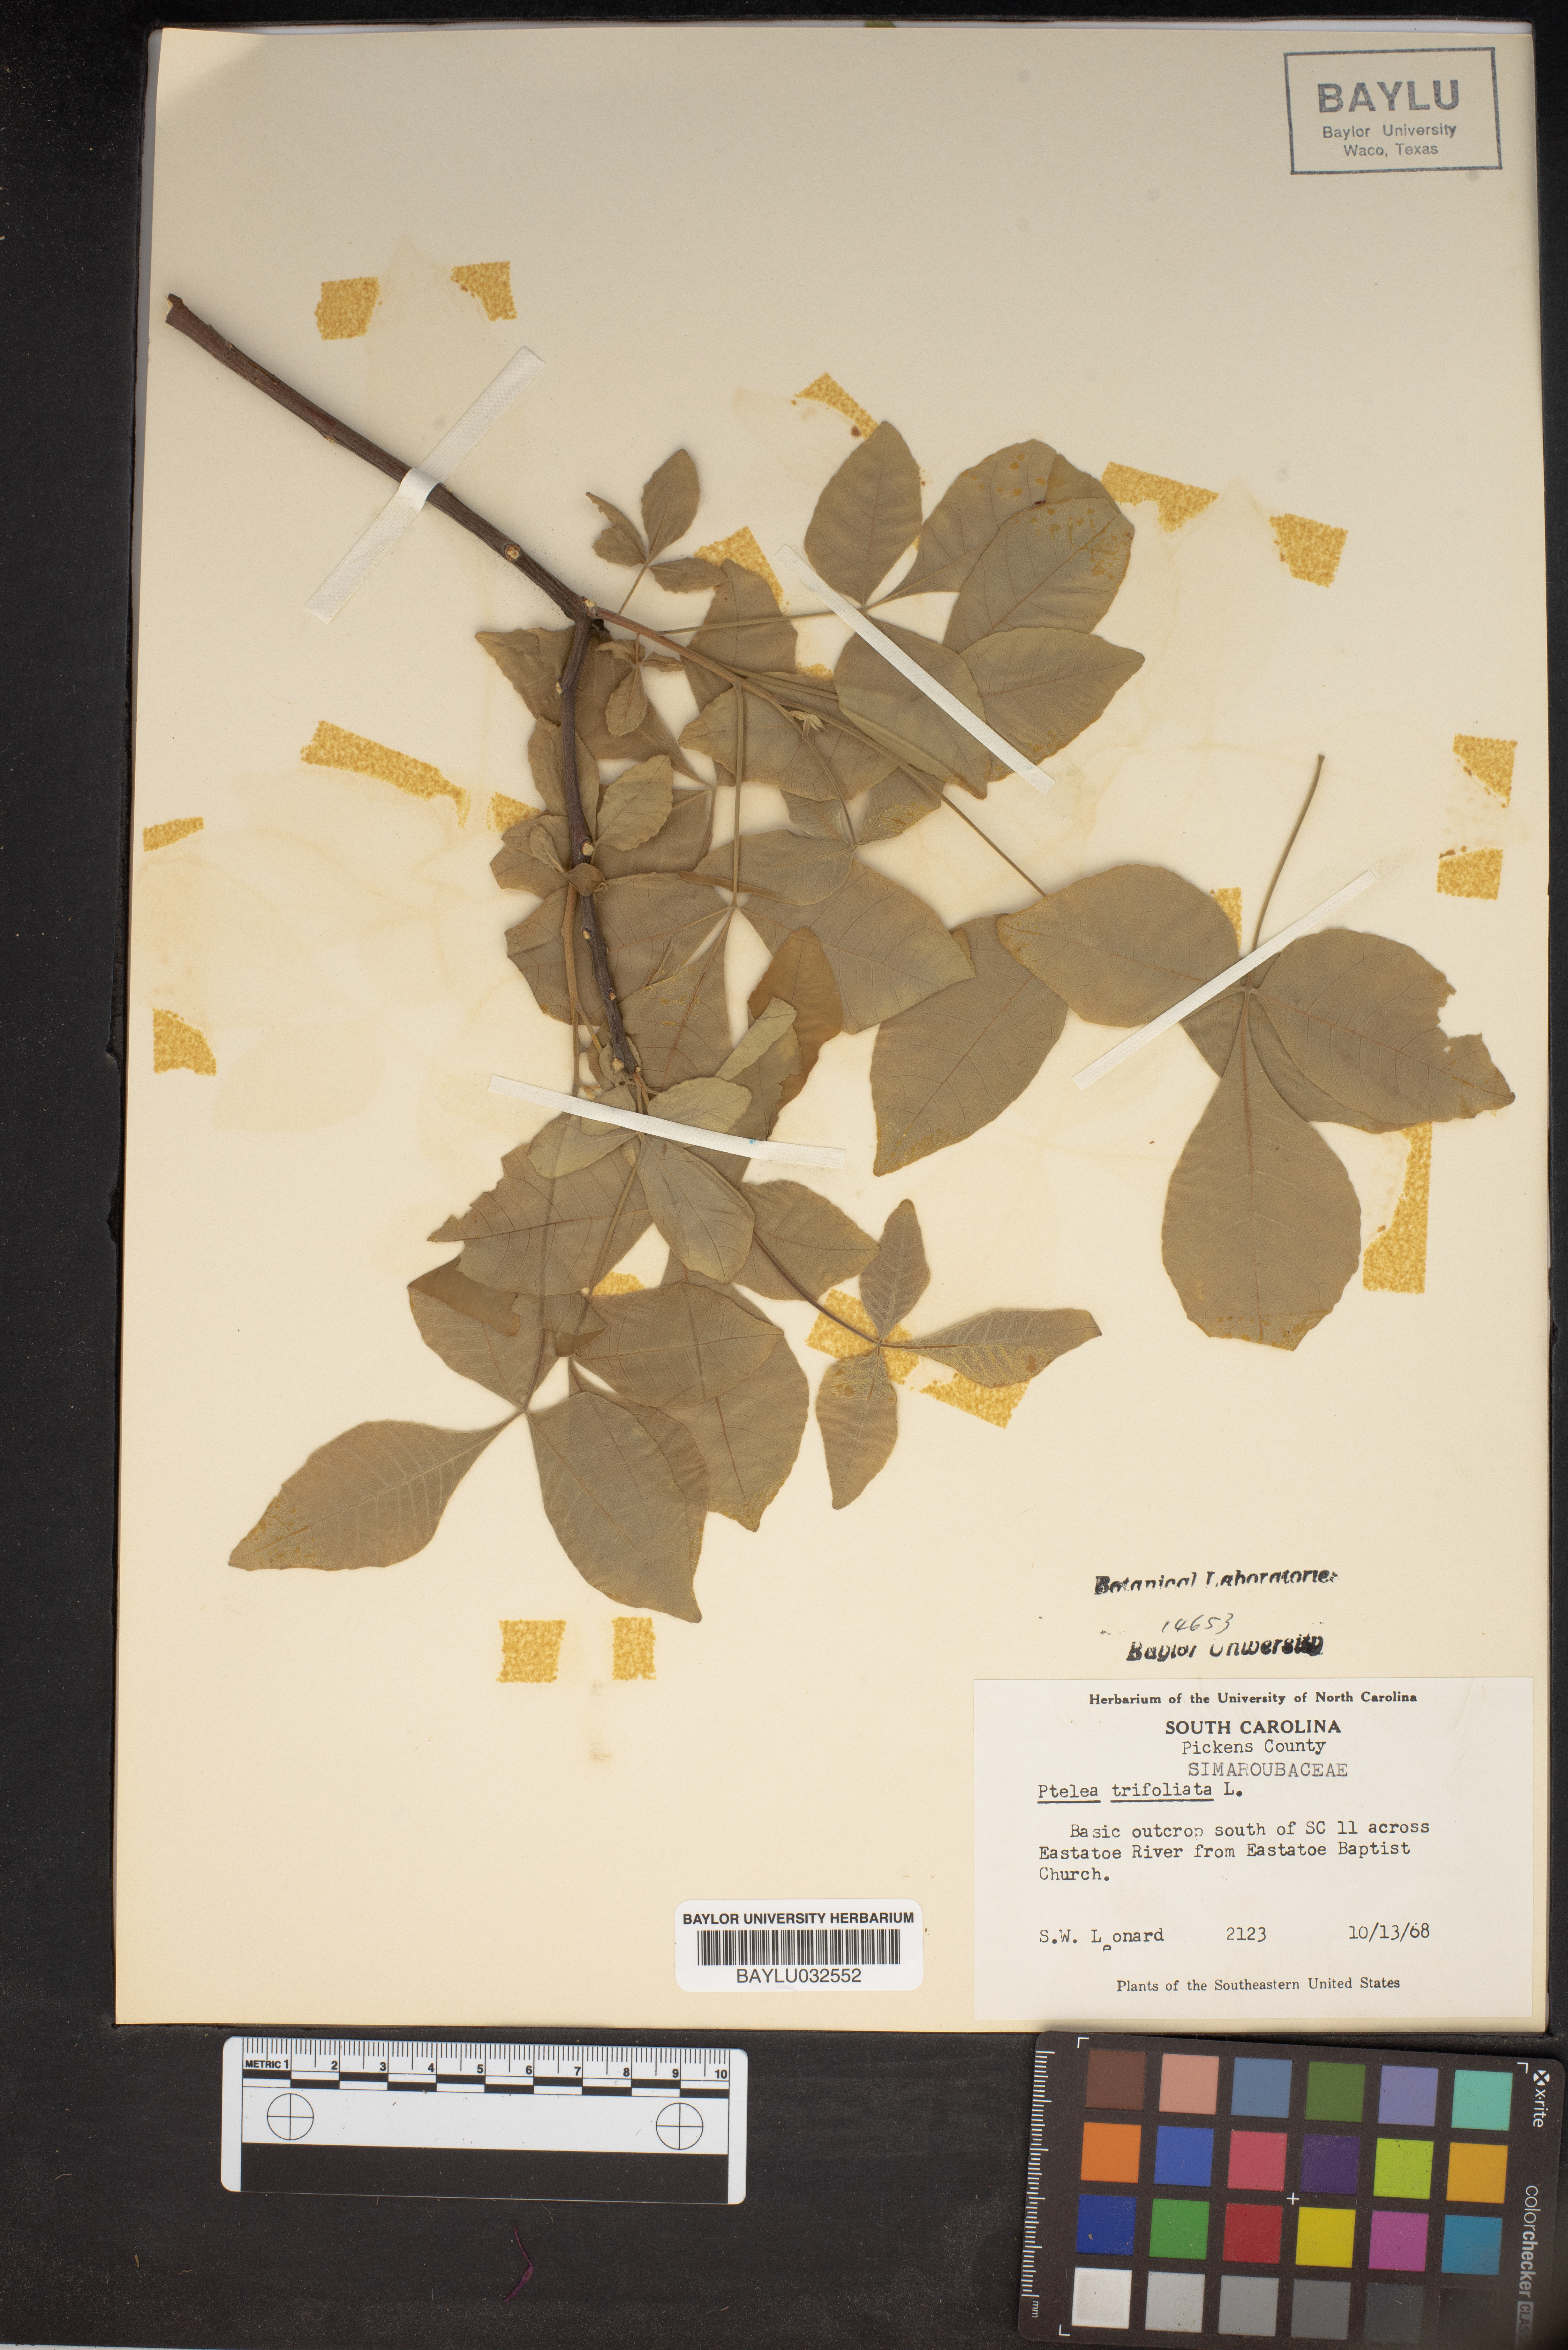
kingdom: Plantae
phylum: Tracheophyta
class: Magnoliopsida
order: Sapindales
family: Rutaceae
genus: Ptelea
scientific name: Ptelea trifoliata
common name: Common hop-tree
